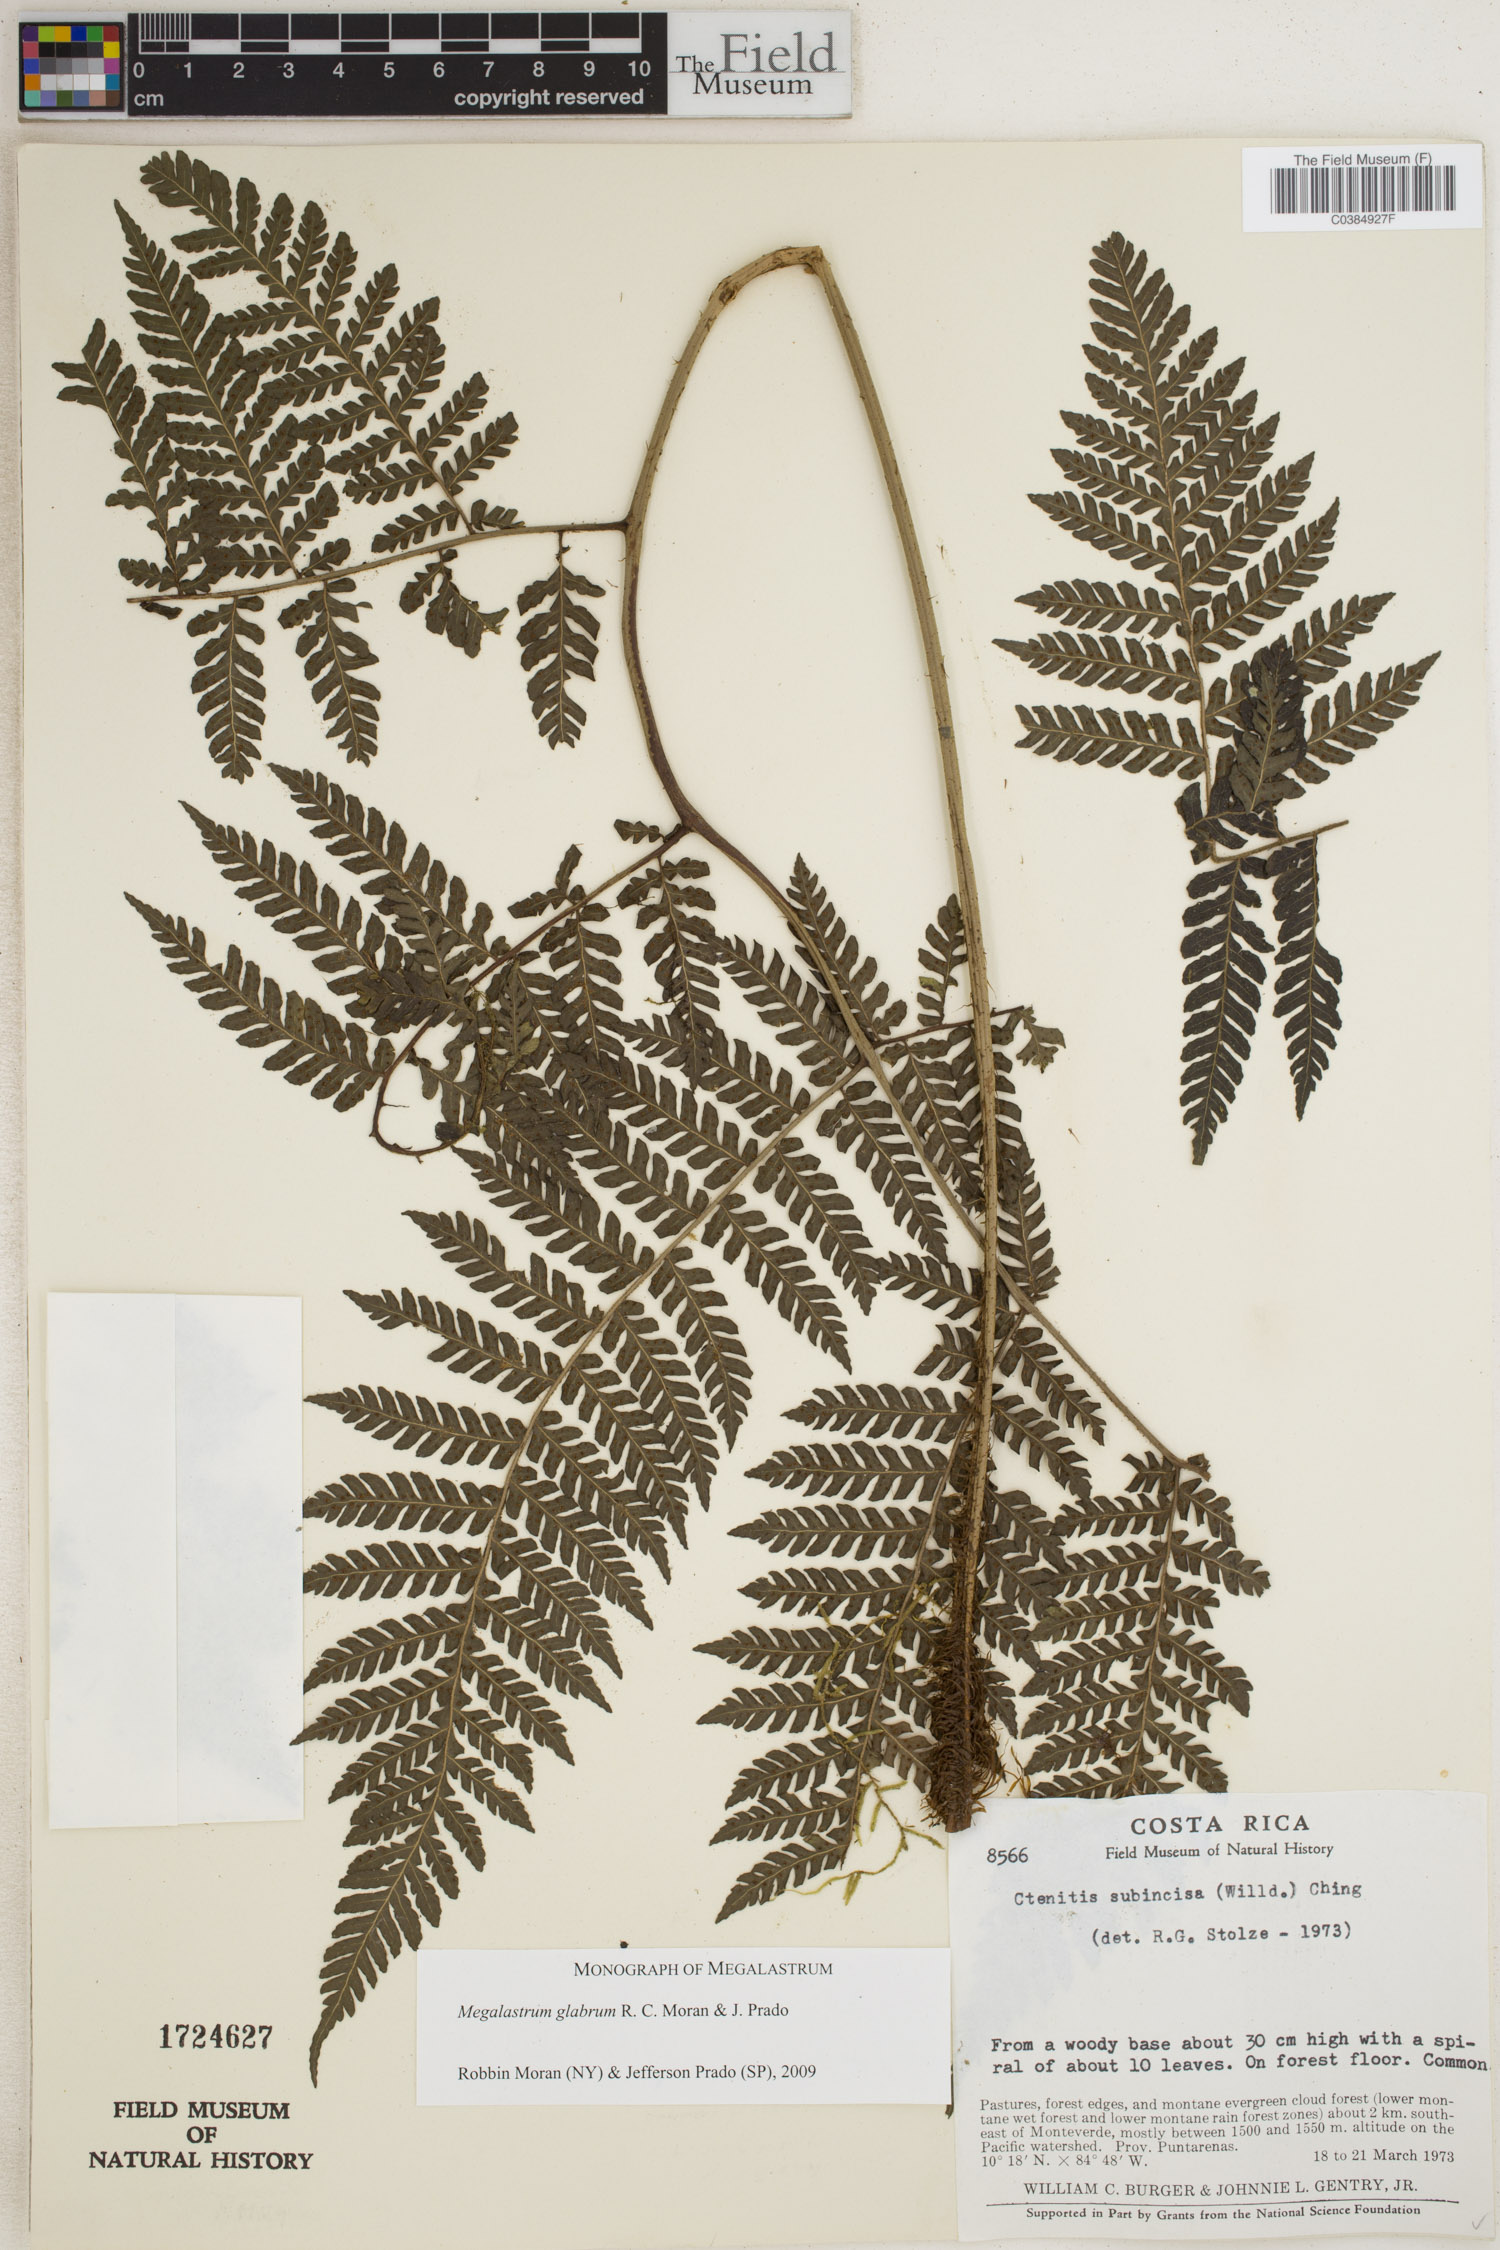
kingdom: Plantae
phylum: Tracheophyta
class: Polypodiopsida
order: Polypodiales
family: Dryopteridaceae
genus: Megalastrum
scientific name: Megalastrum glabrum
